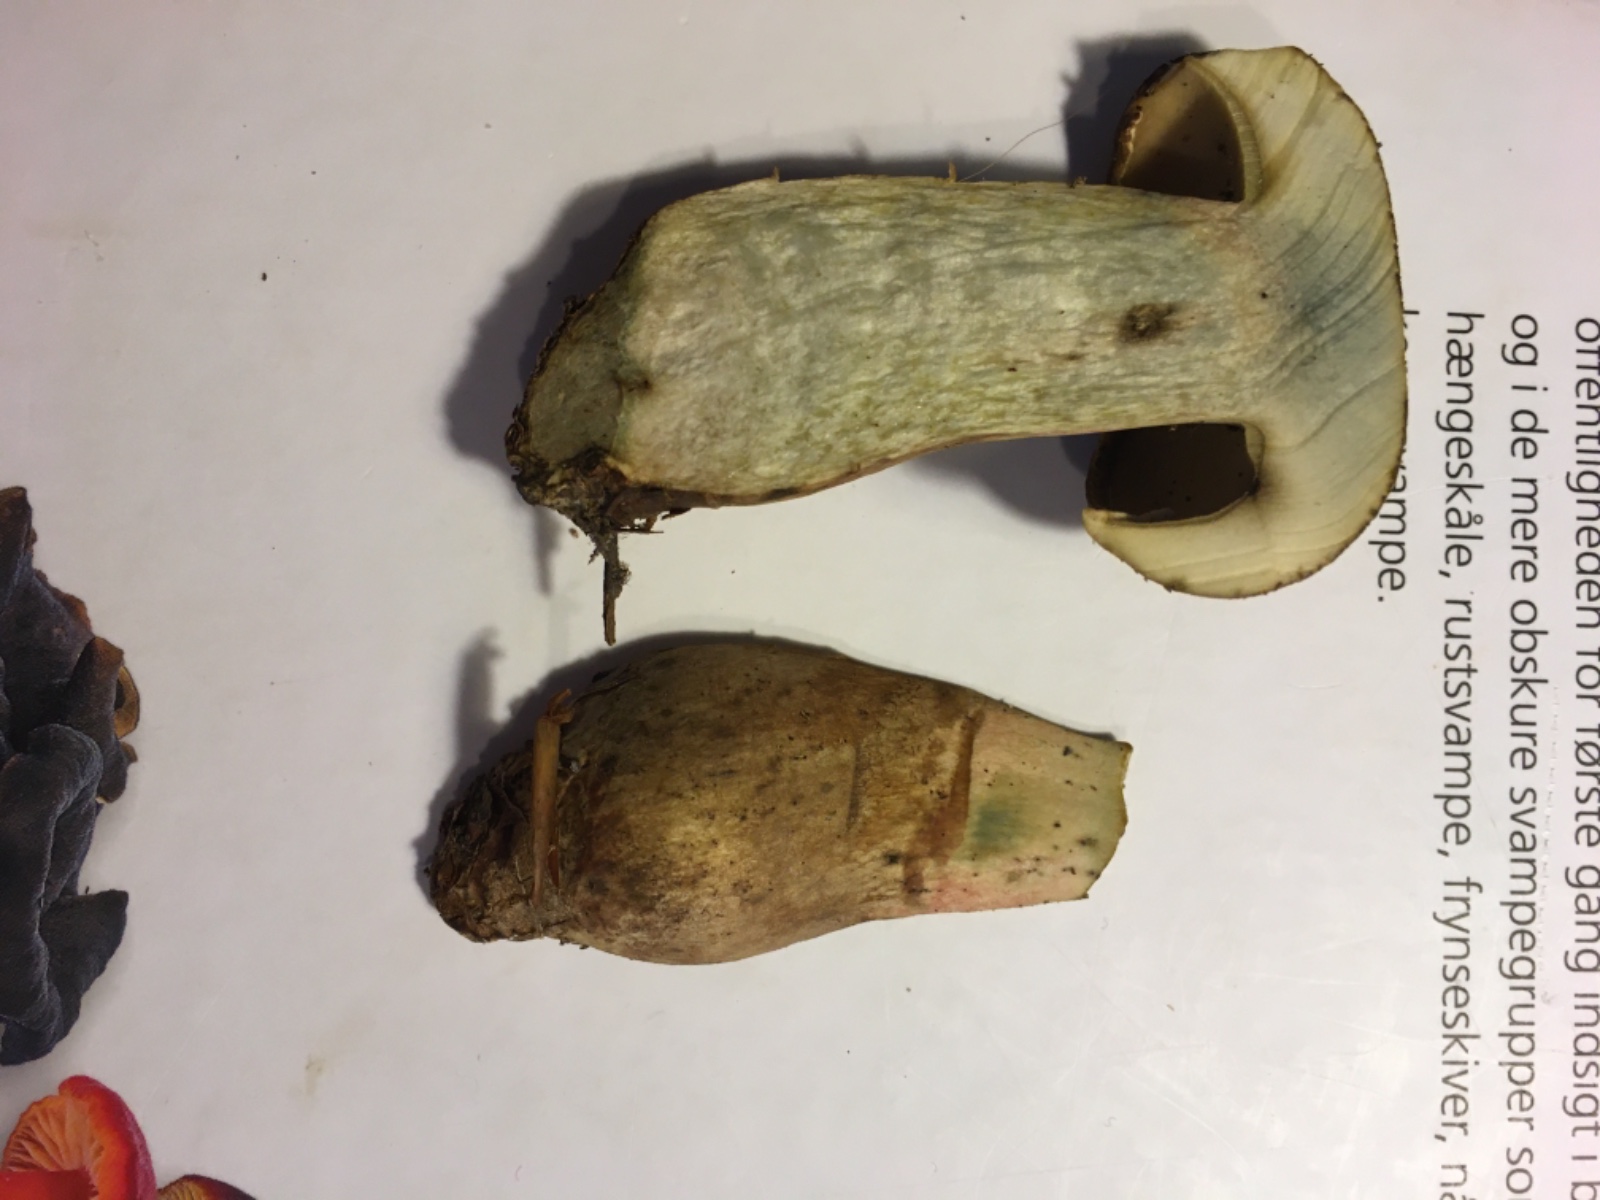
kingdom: Fungi
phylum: Basidiomycota
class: Agaricomycetes
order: Boletales
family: Boletaceae
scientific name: Boletaceae
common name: rørhatfamilien
